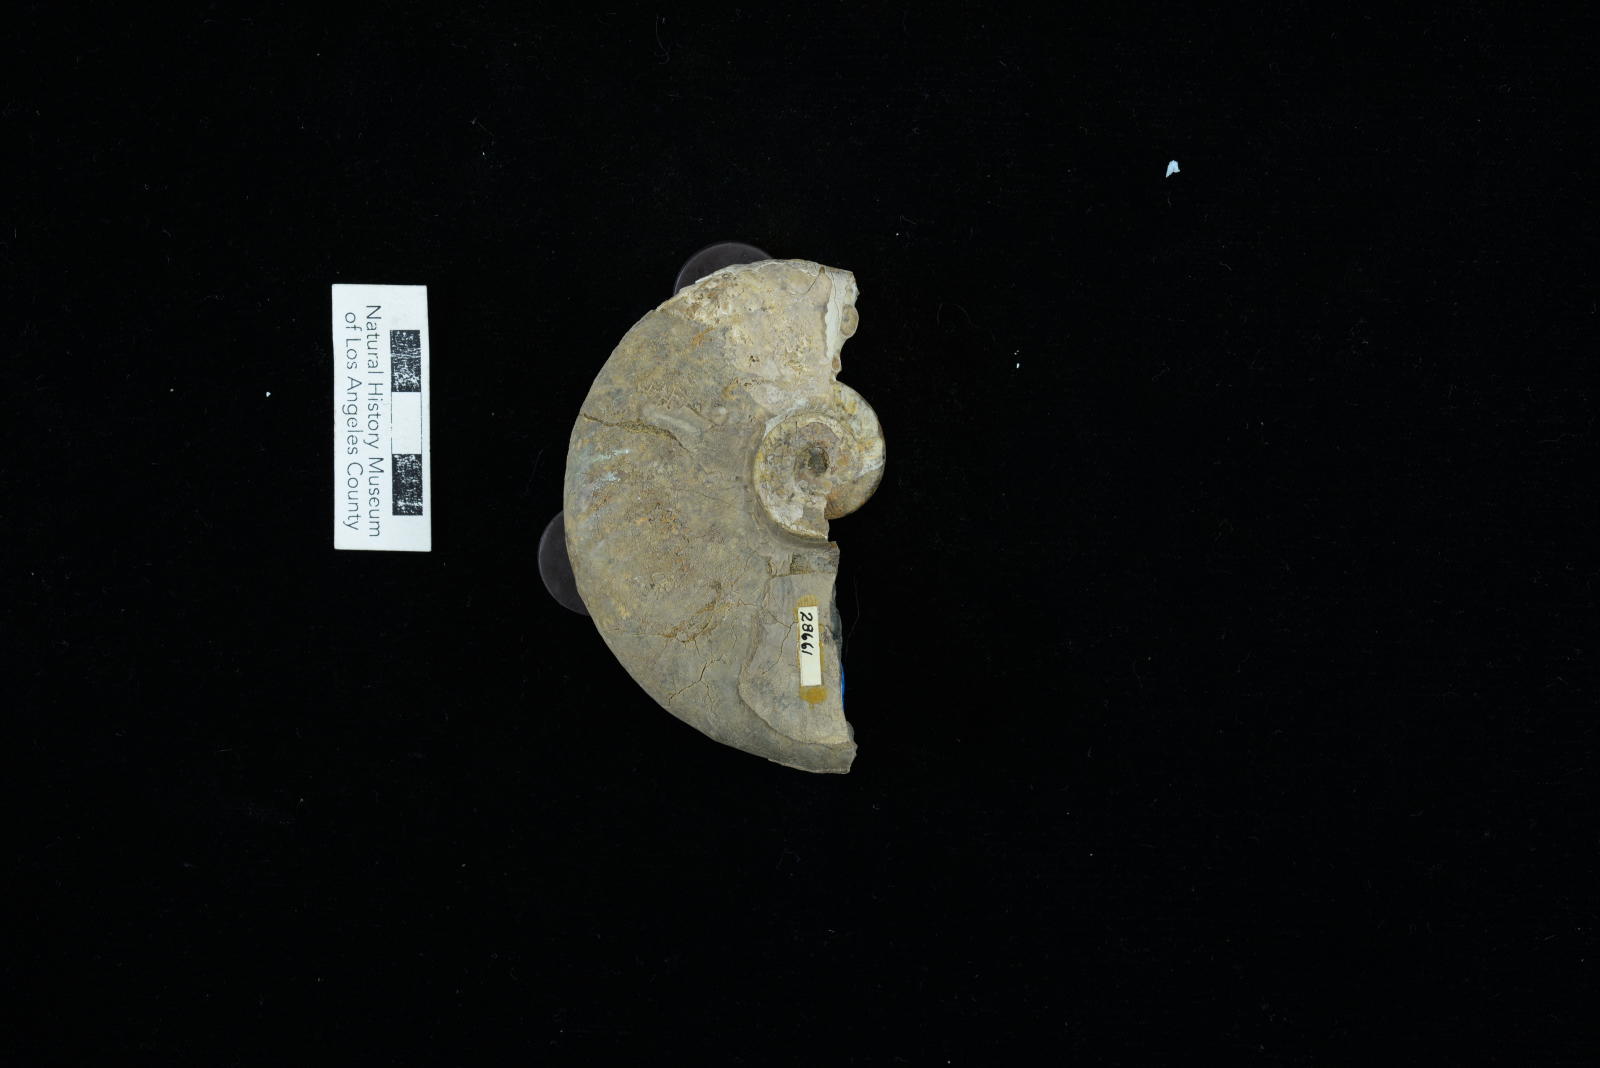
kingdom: Animalia
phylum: Mollusca
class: Cephalopoda
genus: Brewericeras
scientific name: Brewericeras
